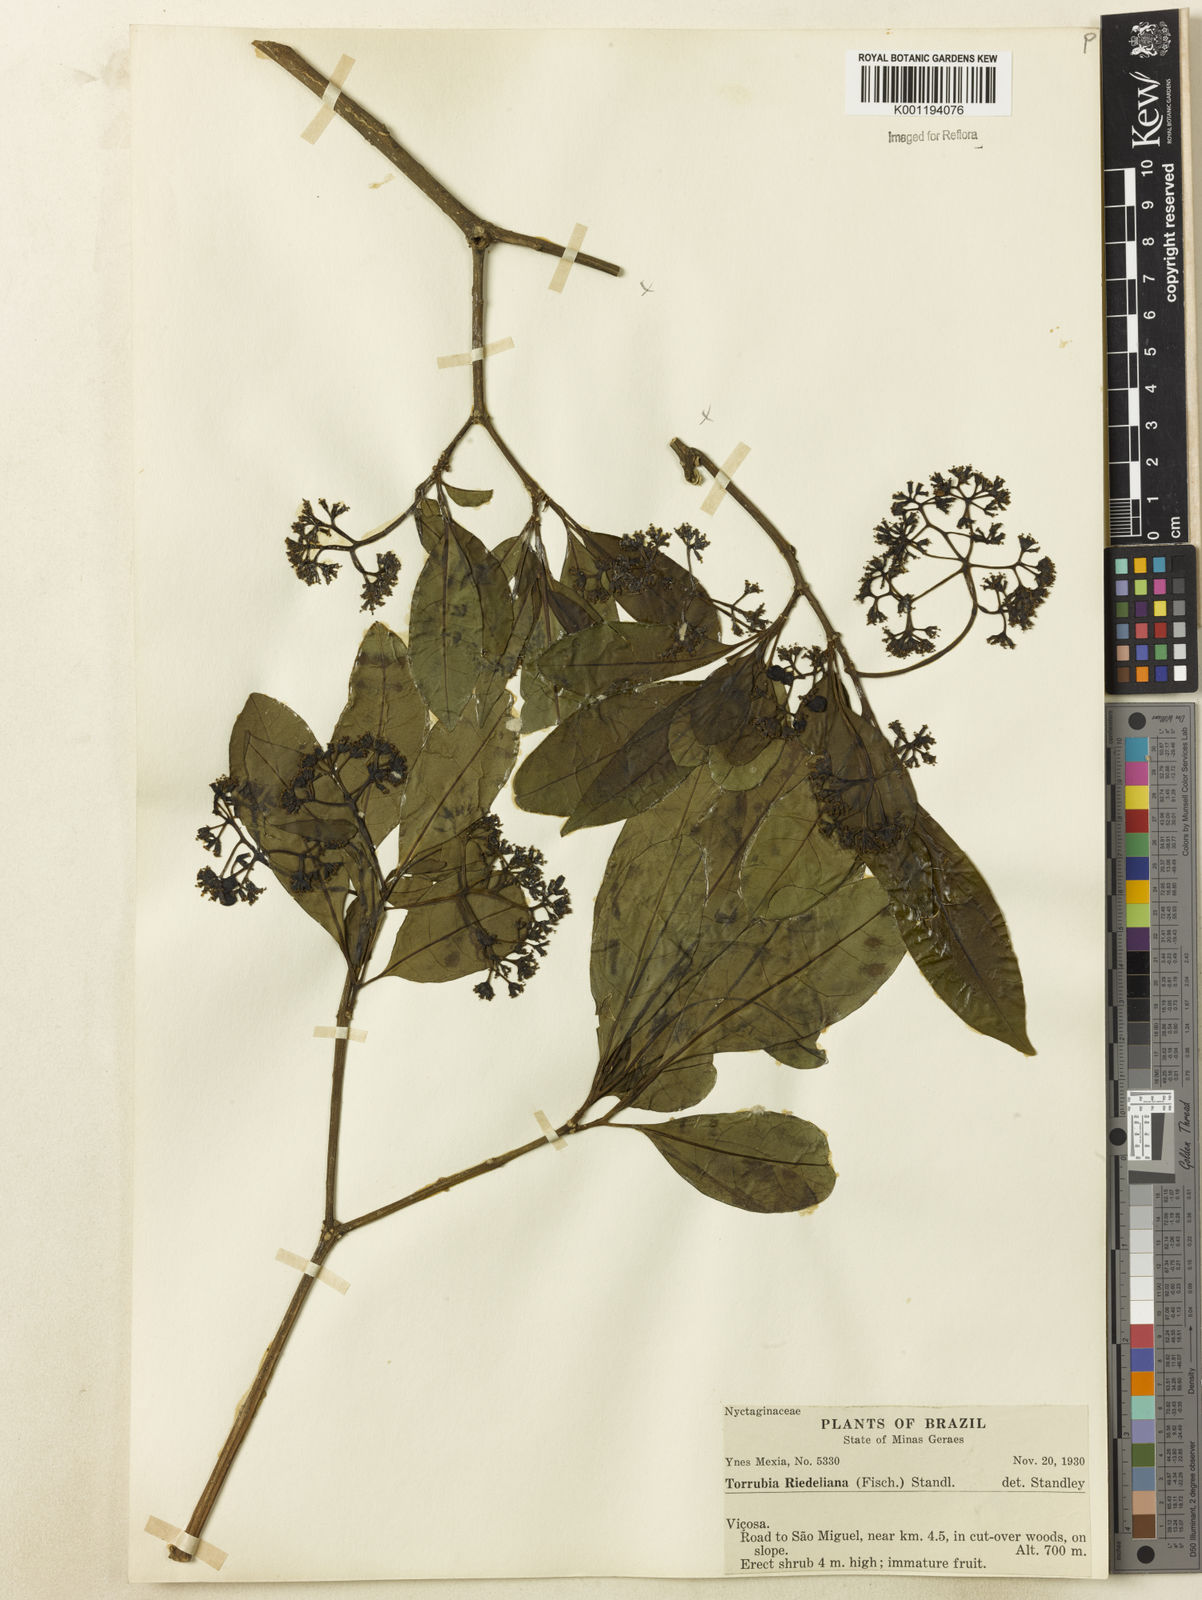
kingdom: Plantae
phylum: Tracheophyta
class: Magnoliopsida
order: Caryophyllales
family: Nyctaginaceae
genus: Guapira
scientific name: Guapira riedeliana
